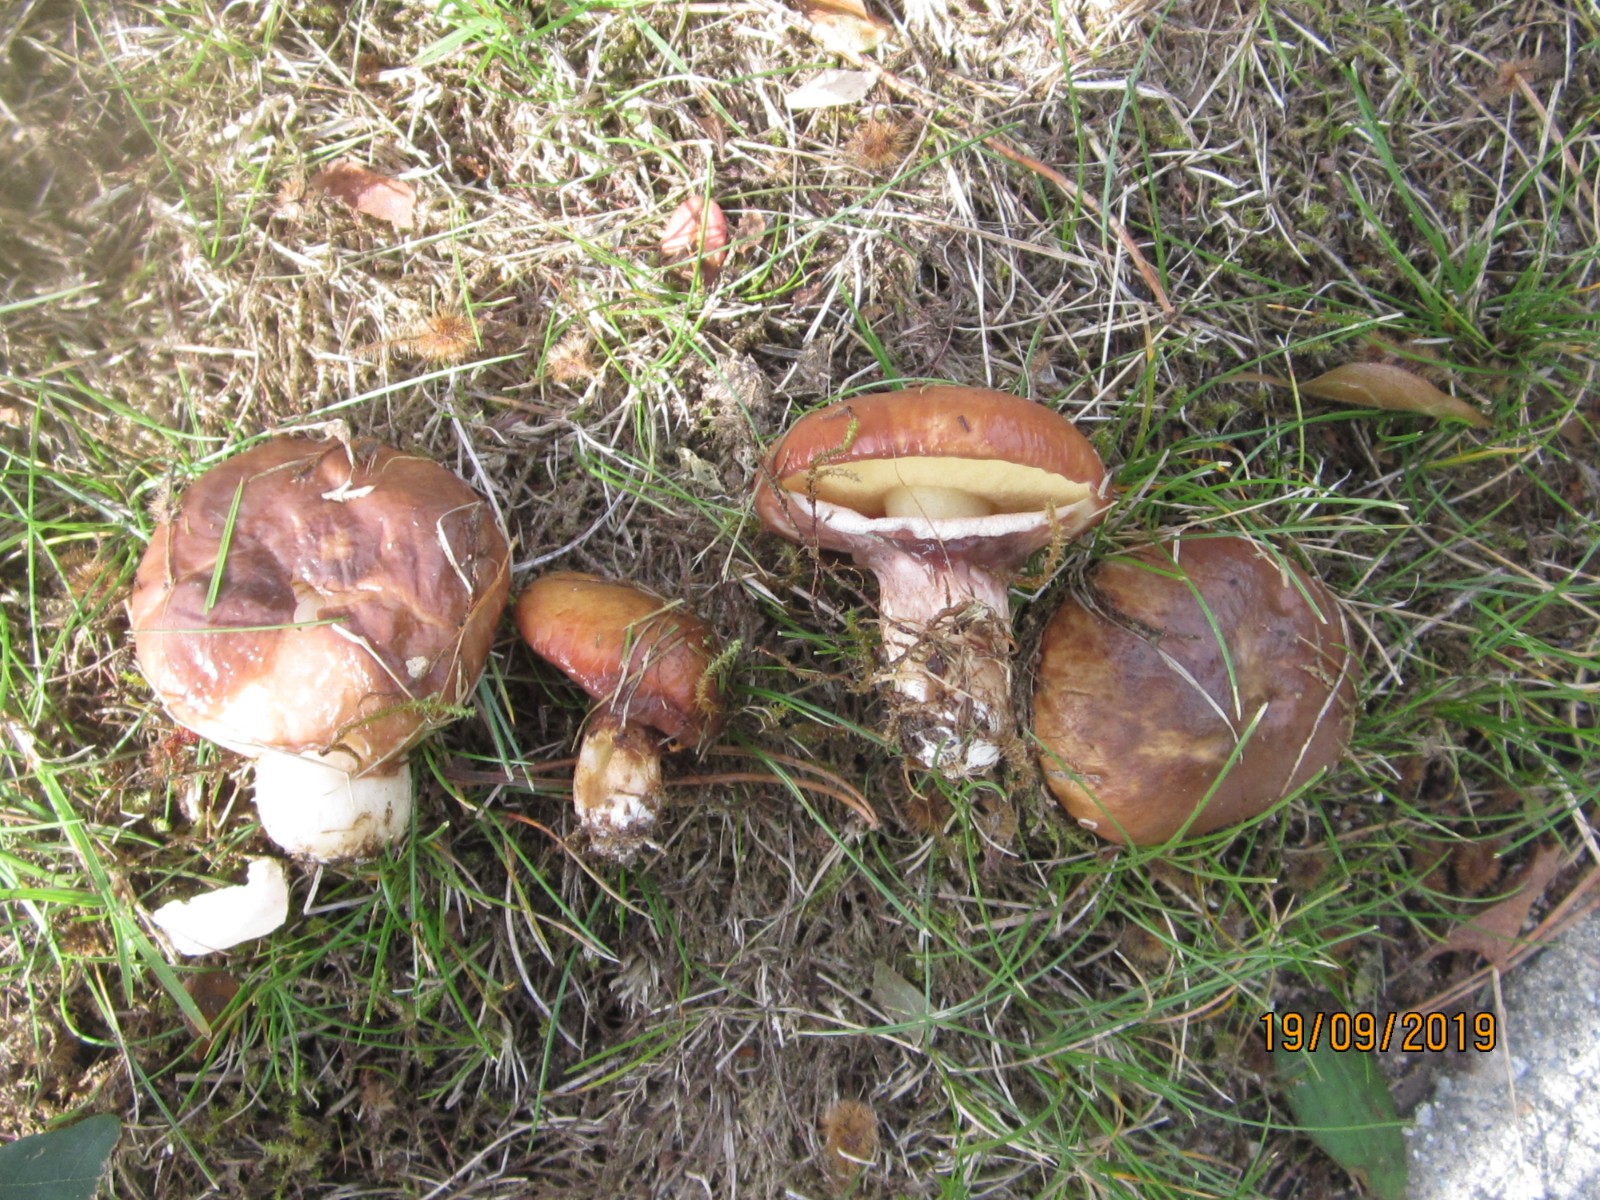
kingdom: Fungi
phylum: Basidiomycota
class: Agaricomycetes
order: Boletales
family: Suillaceae
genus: Suillus
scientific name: Suillus luteus
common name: brungul slimrørhat
